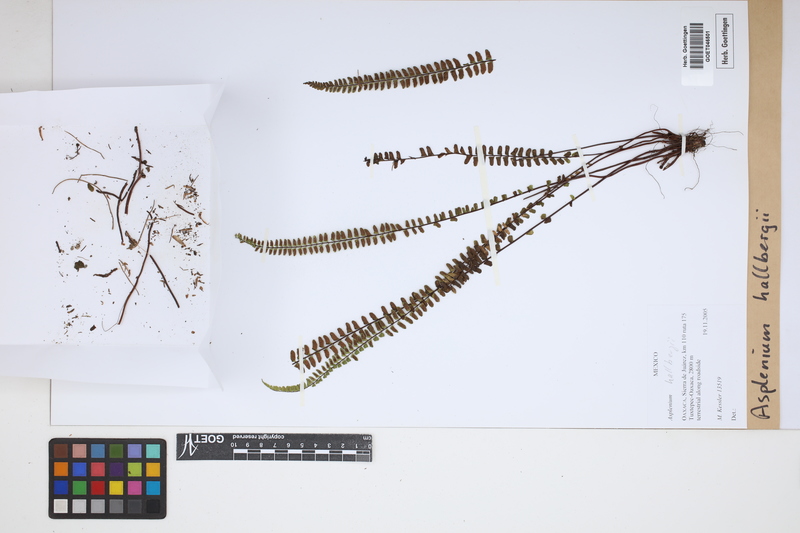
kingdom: Plantae
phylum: Tracheophyta
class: Polypodiopsida
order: Polypodiales
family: Aspleniaceae
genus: Asplenium
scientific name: Asplenium hallbergii
